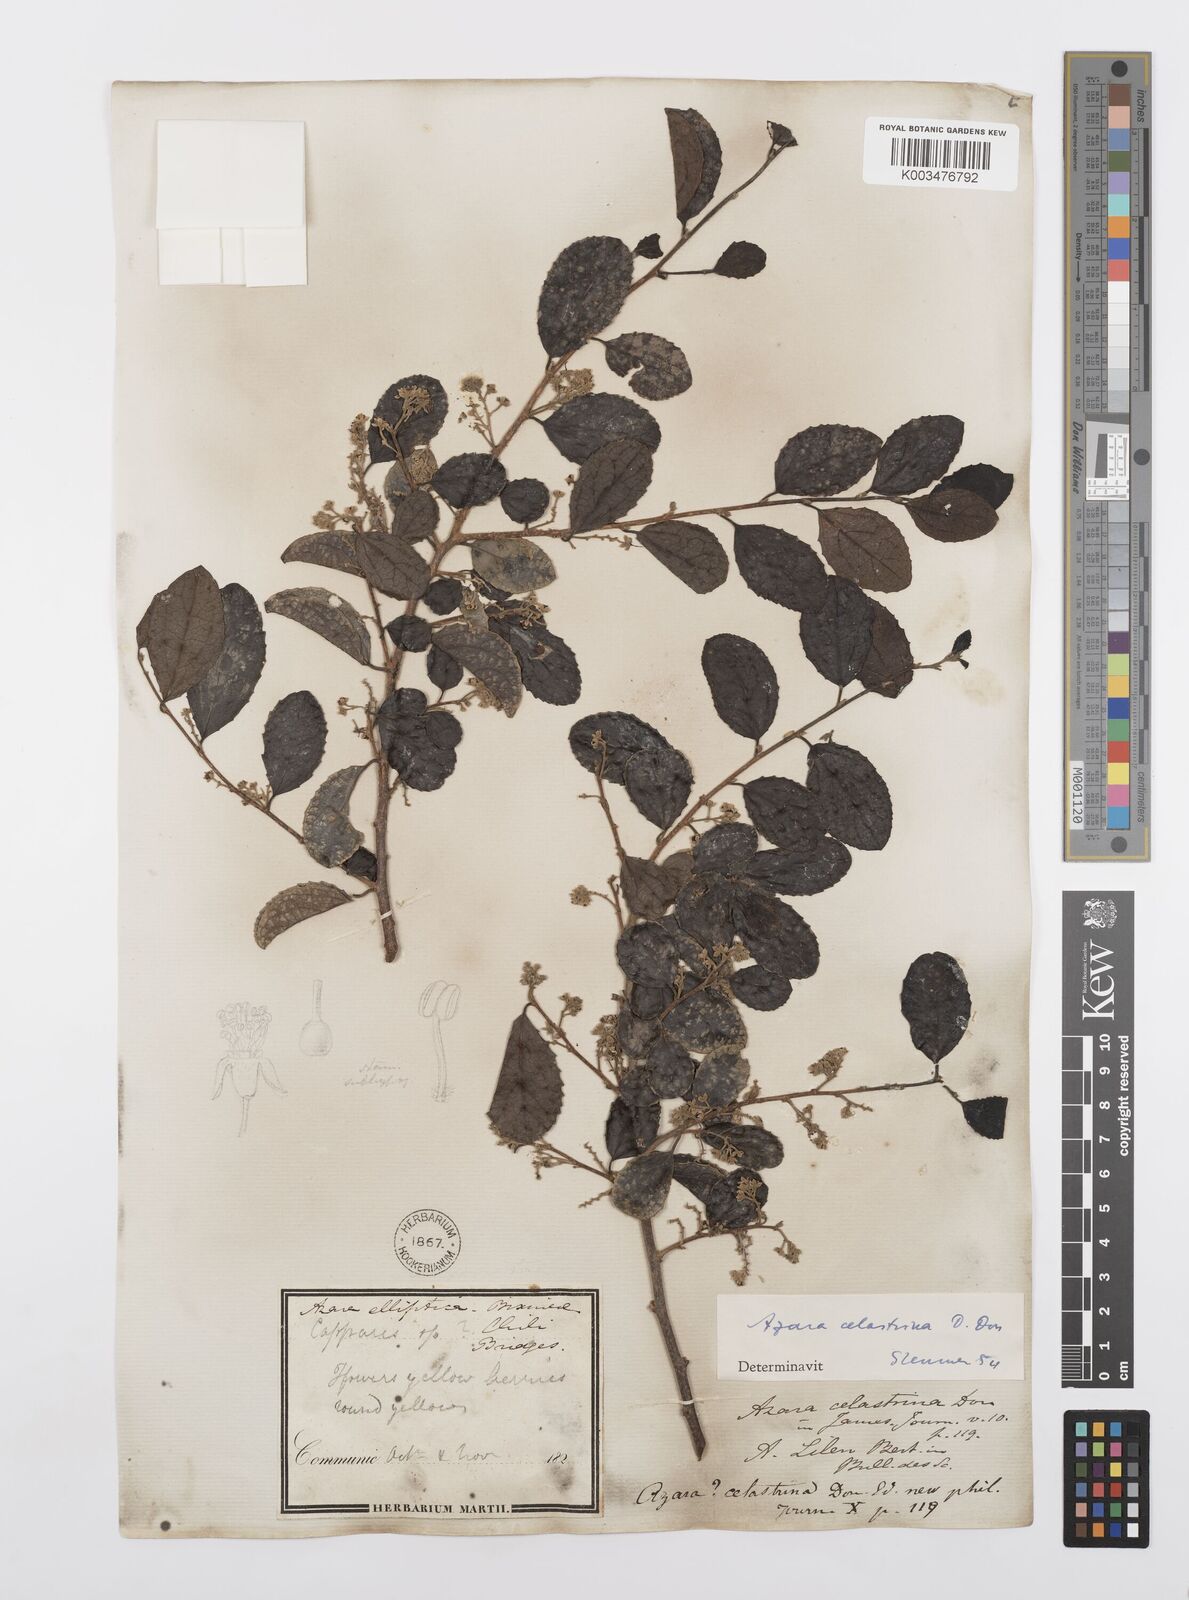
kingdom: Plantae
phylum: Tracheophyta
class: Magnoliopsida
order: Malpighiales
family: Salicaceae
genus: Azara
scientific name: Azara celastrina
